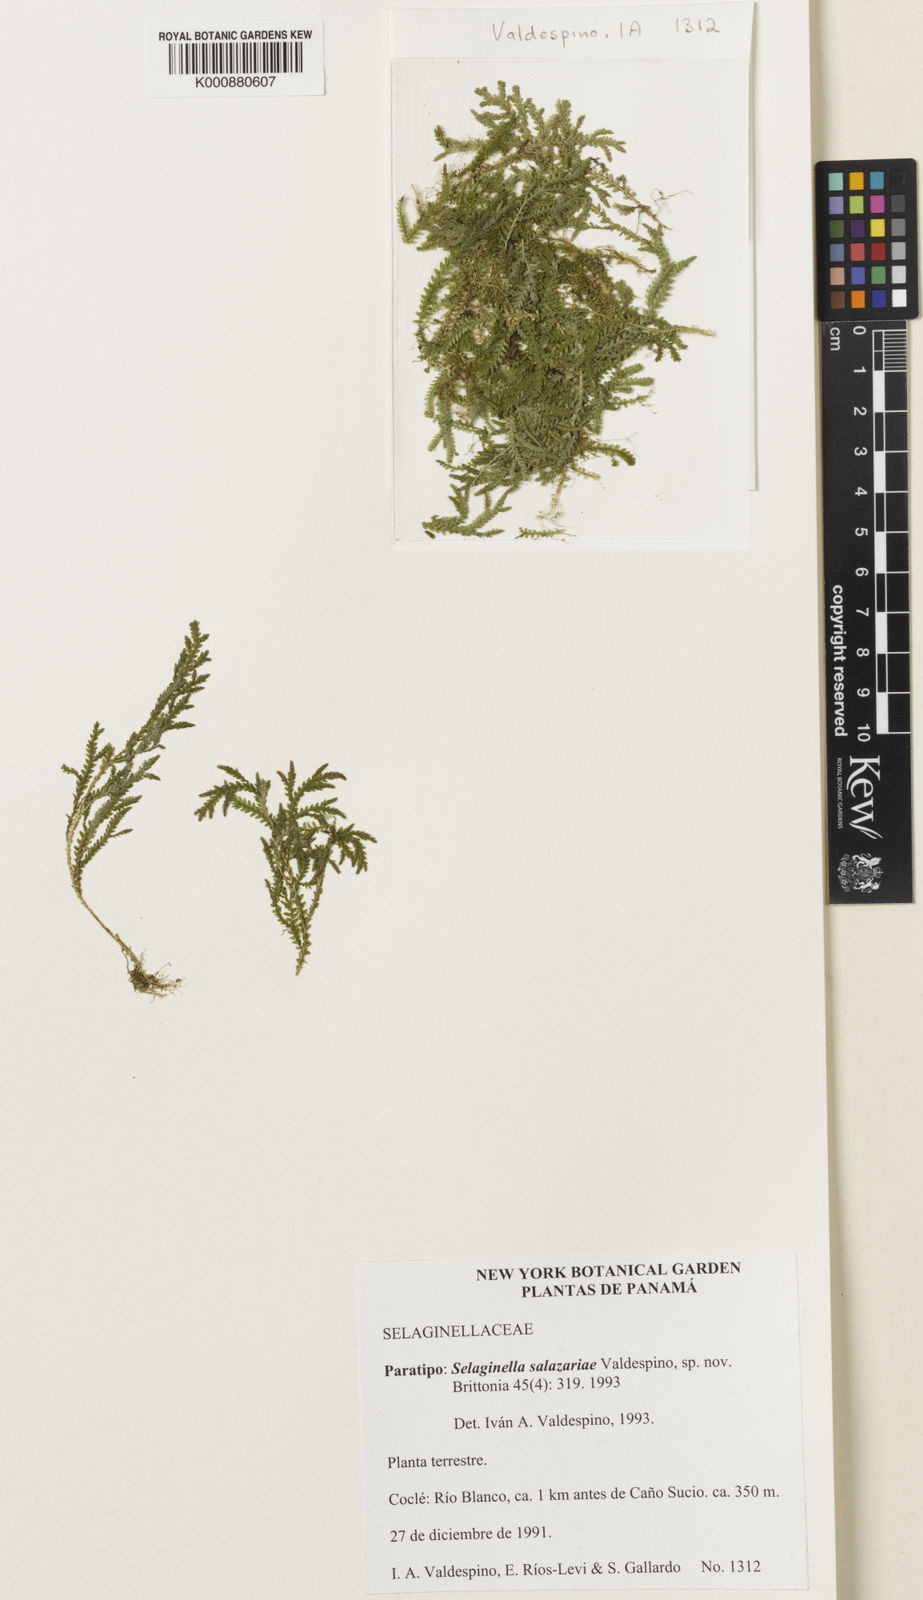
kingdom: Plantae
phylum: Tracheophyta
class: Lycopodiopsida
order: Selaginellales
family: Selaginellaceae
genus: Selaginella
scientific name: Selaginella salazariae
